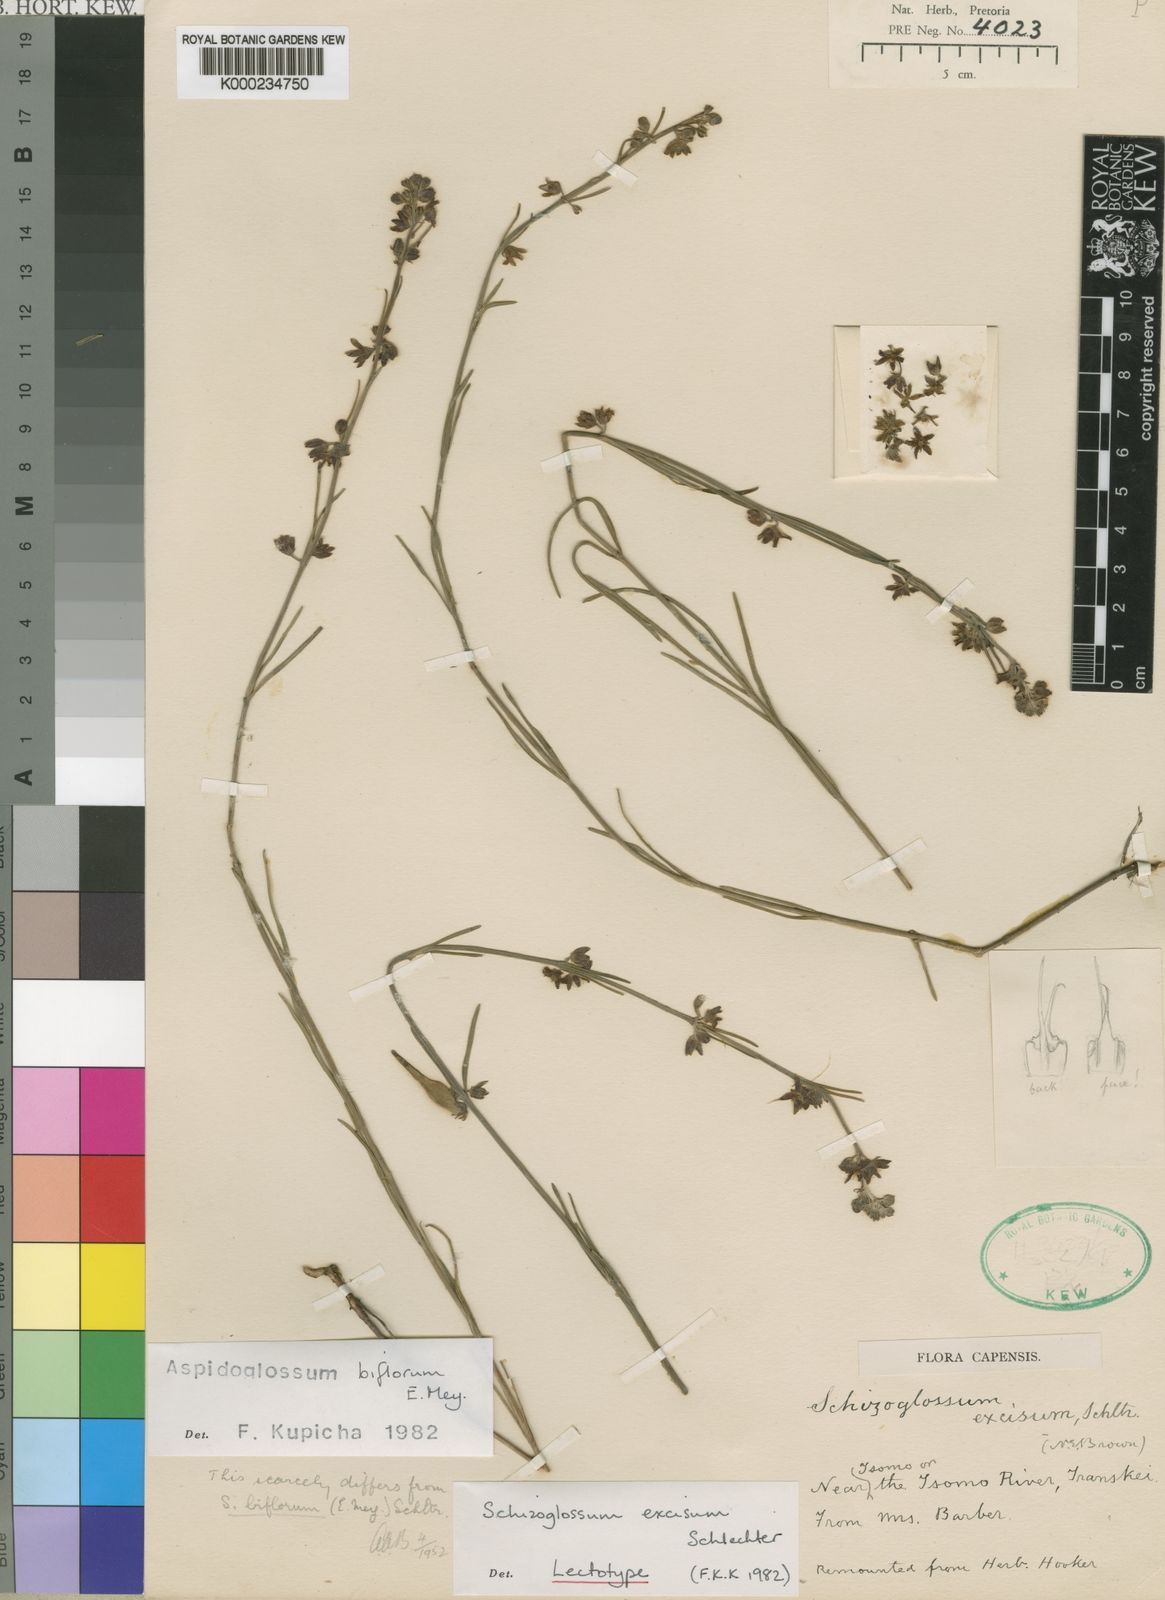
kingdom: Plantae
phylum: Tracheophyta
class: Magnoliopsida
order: Gentianales
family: Apocynaceae
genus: Aspidoglossum
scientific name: Aspidoglossum biflorum
